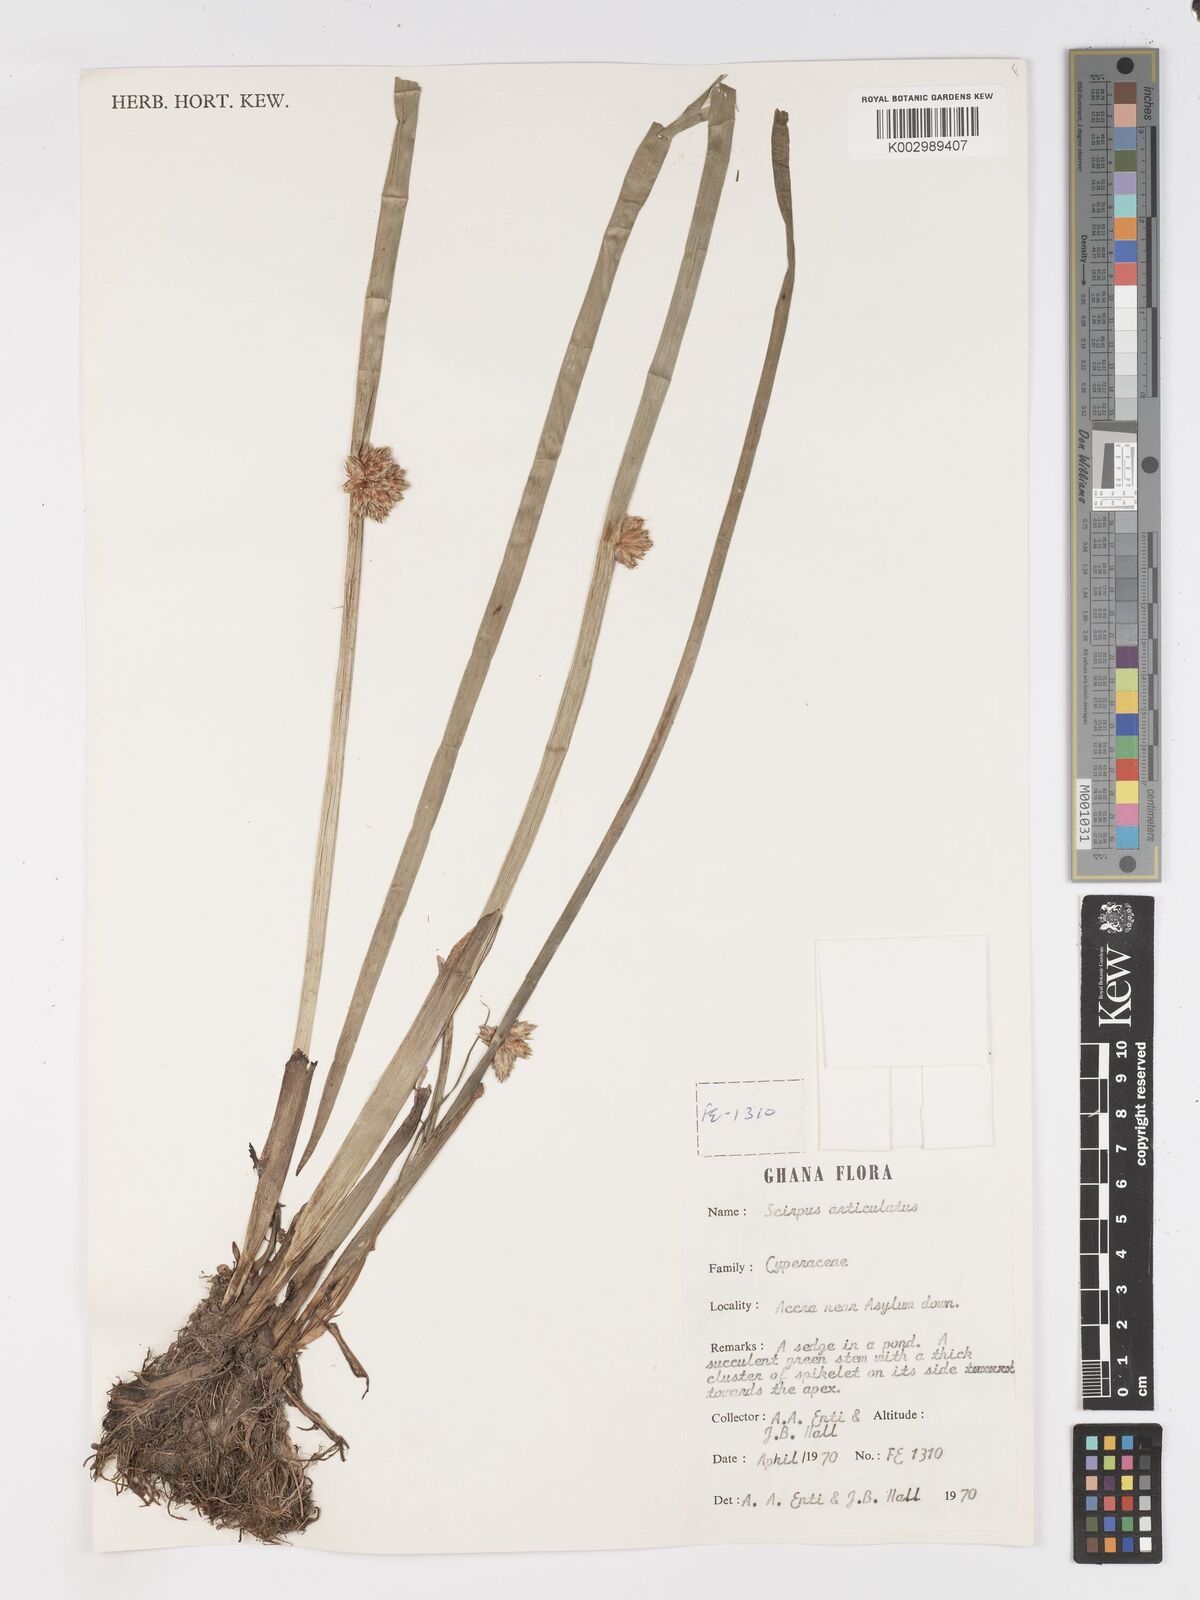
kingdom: Plantae
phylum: Tracheophyta
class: Liliopsida
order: Poales
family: Cyperaceae
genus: Schoenoplectiella
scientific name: Schoenoplectiella articulata
